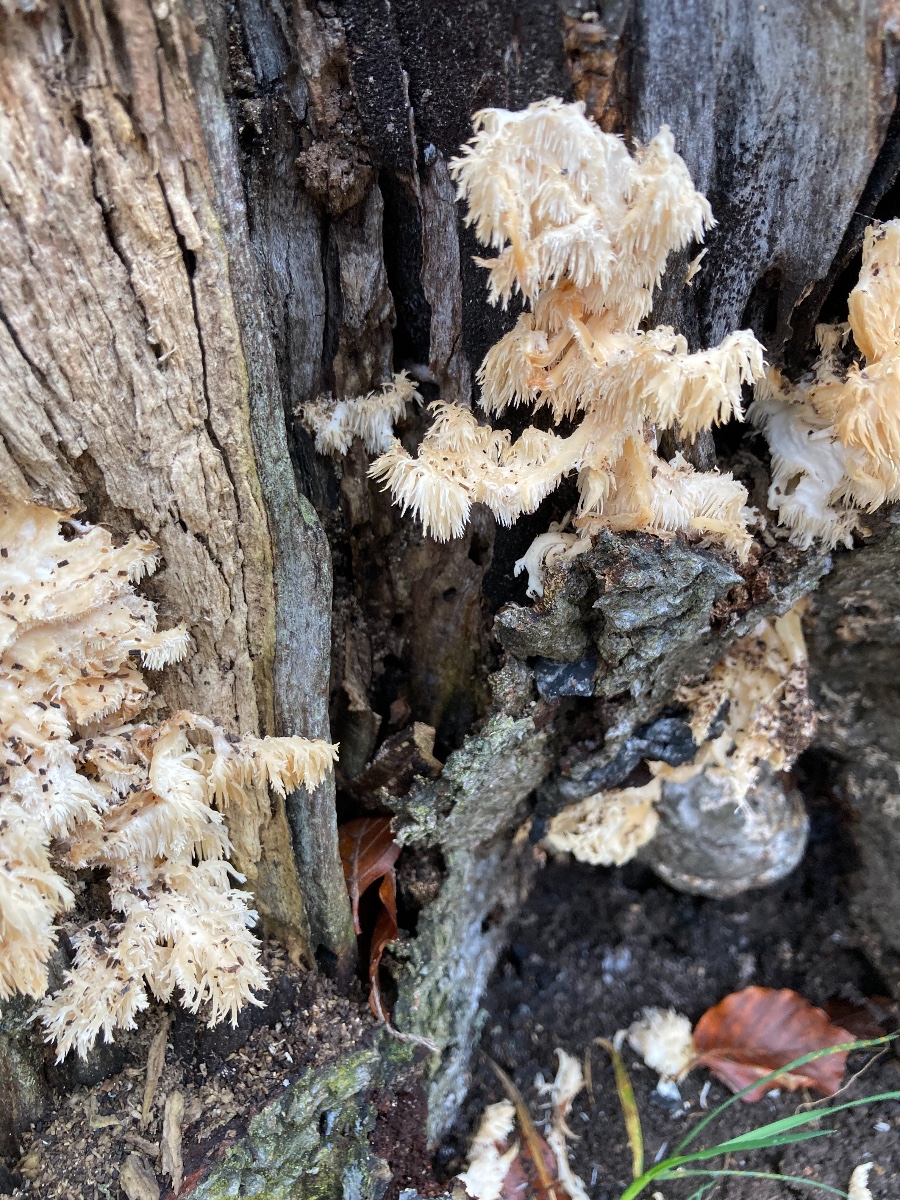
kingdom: Fungi
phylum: Basidiomycota
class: Agaricomycetes
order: Russulales
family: Hericiaceae
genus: Hericium
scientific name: Hericium coralloides
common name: koralpigsvamp
